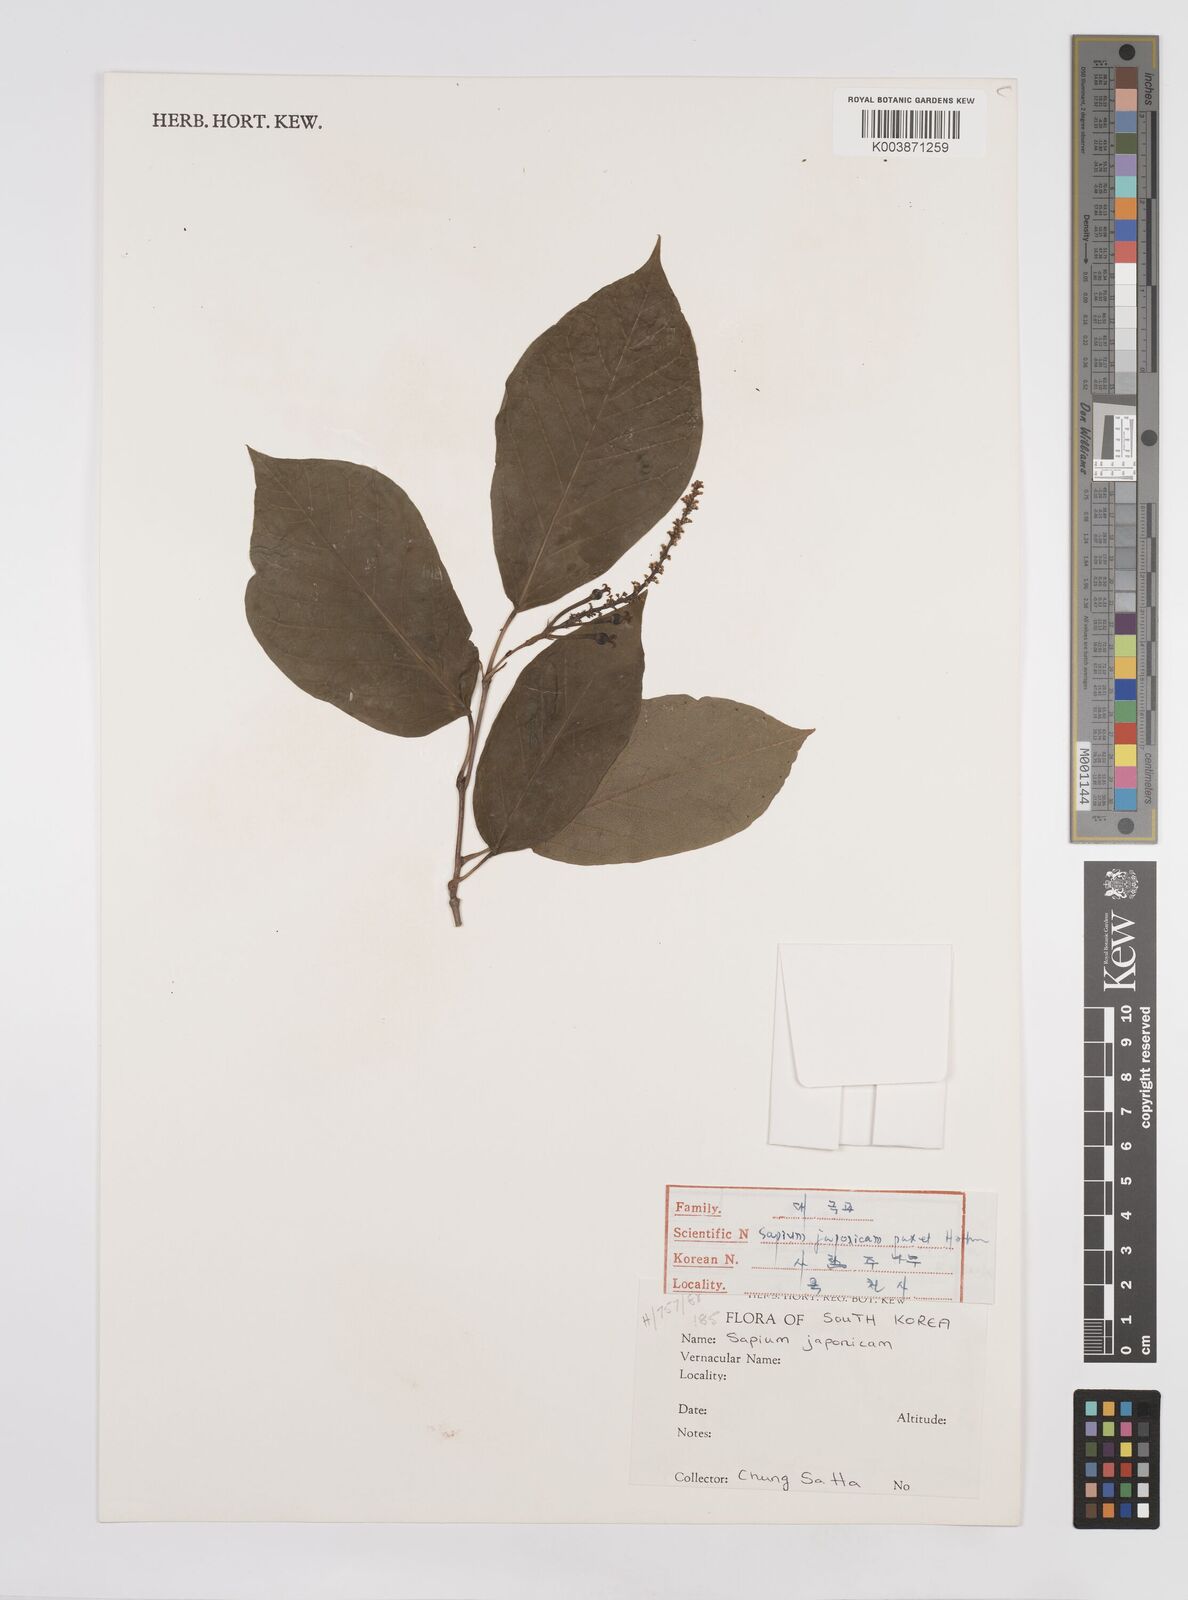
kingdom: Plantae
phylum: Tracheophyta
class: Magnoliopsida
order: Malpighiales
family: Euphorbiaceae
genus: Neoshirakia
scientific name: Neoshirakia japonica
